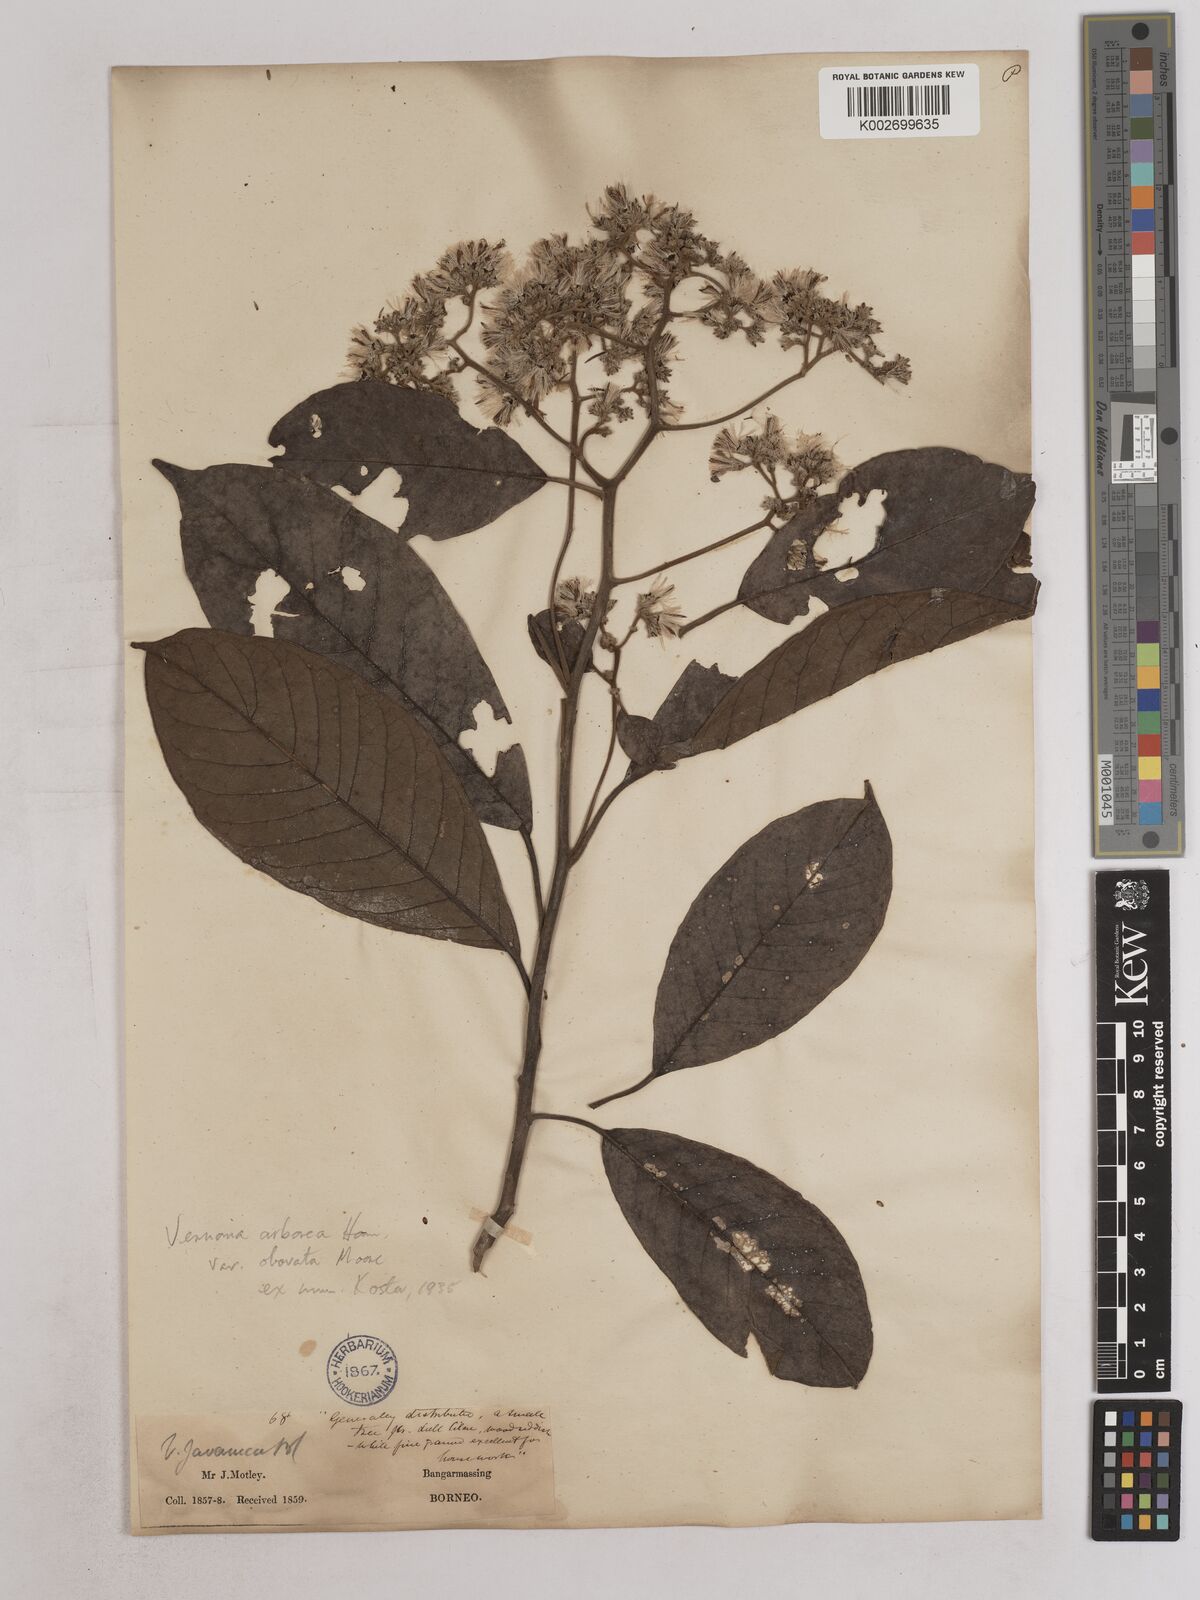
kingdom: Plantae
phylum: Tracheophyta
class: Magnoliopsida
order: Asterales
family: Asteraceae
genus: Strobocalyx
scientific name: Strobocalyx arborea
